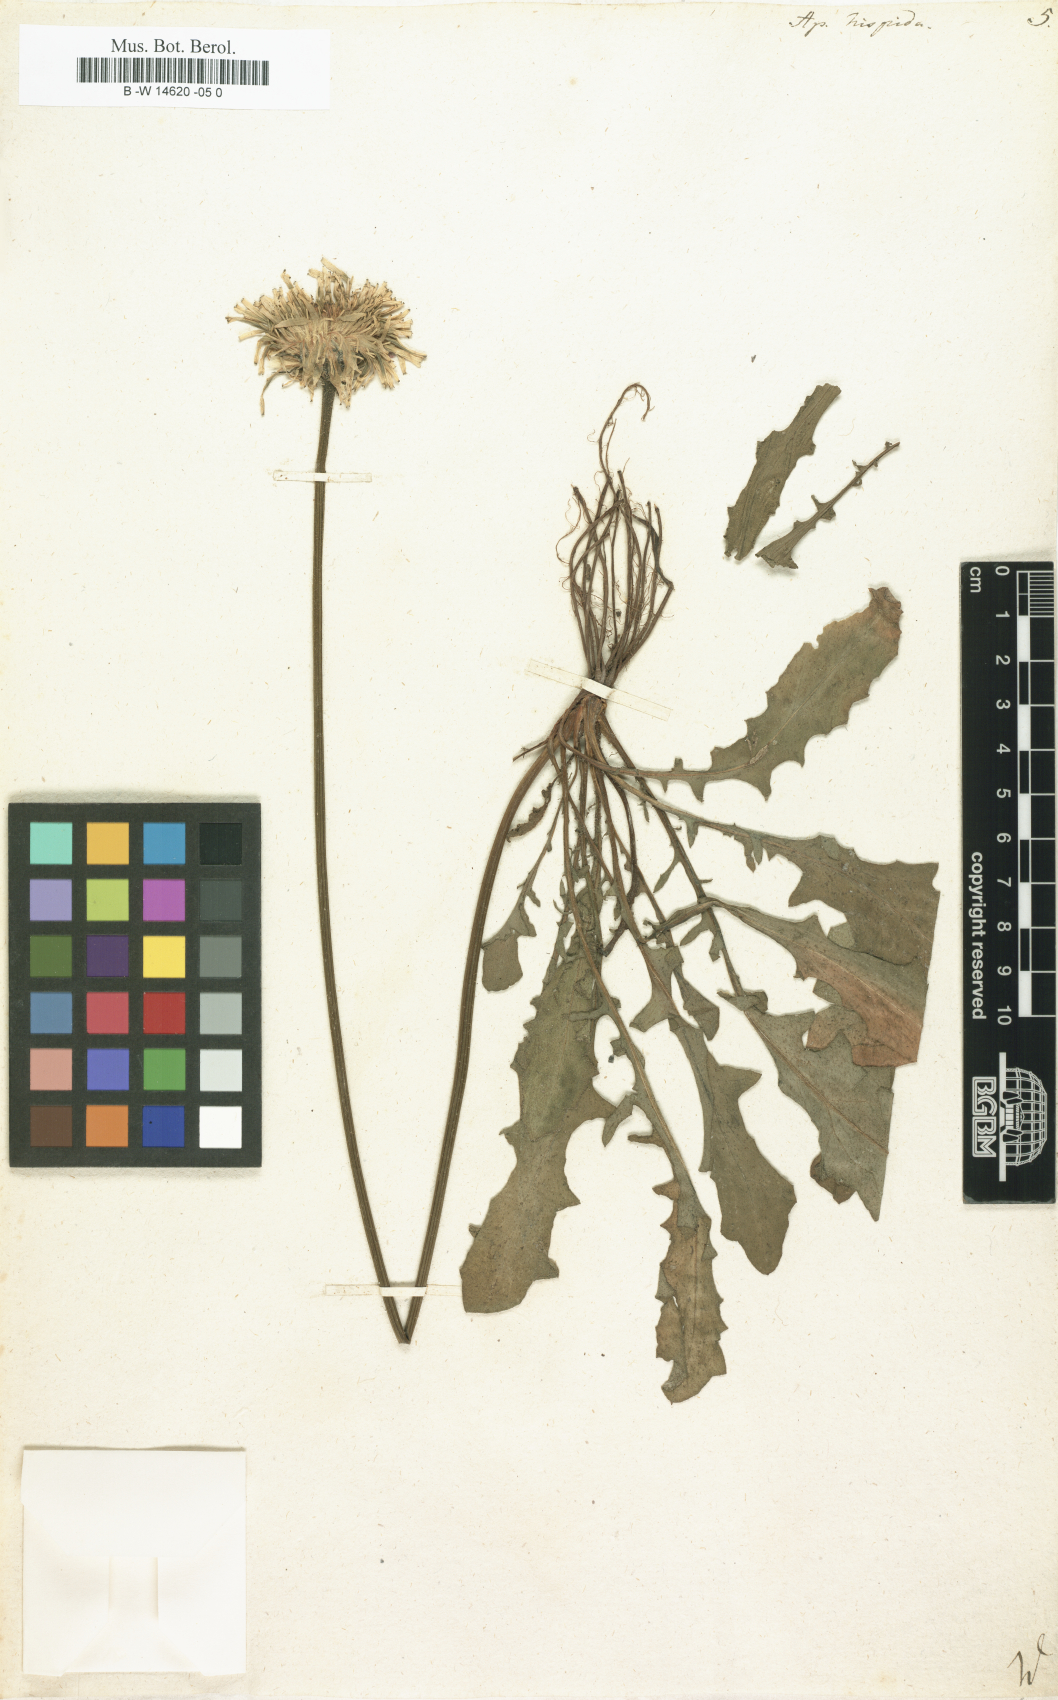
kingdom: Plantae
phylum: Tracheophyta
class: Magnoliopsida
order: Asterales
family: Asteraceae
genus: Leontodon
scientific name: Leontodon
